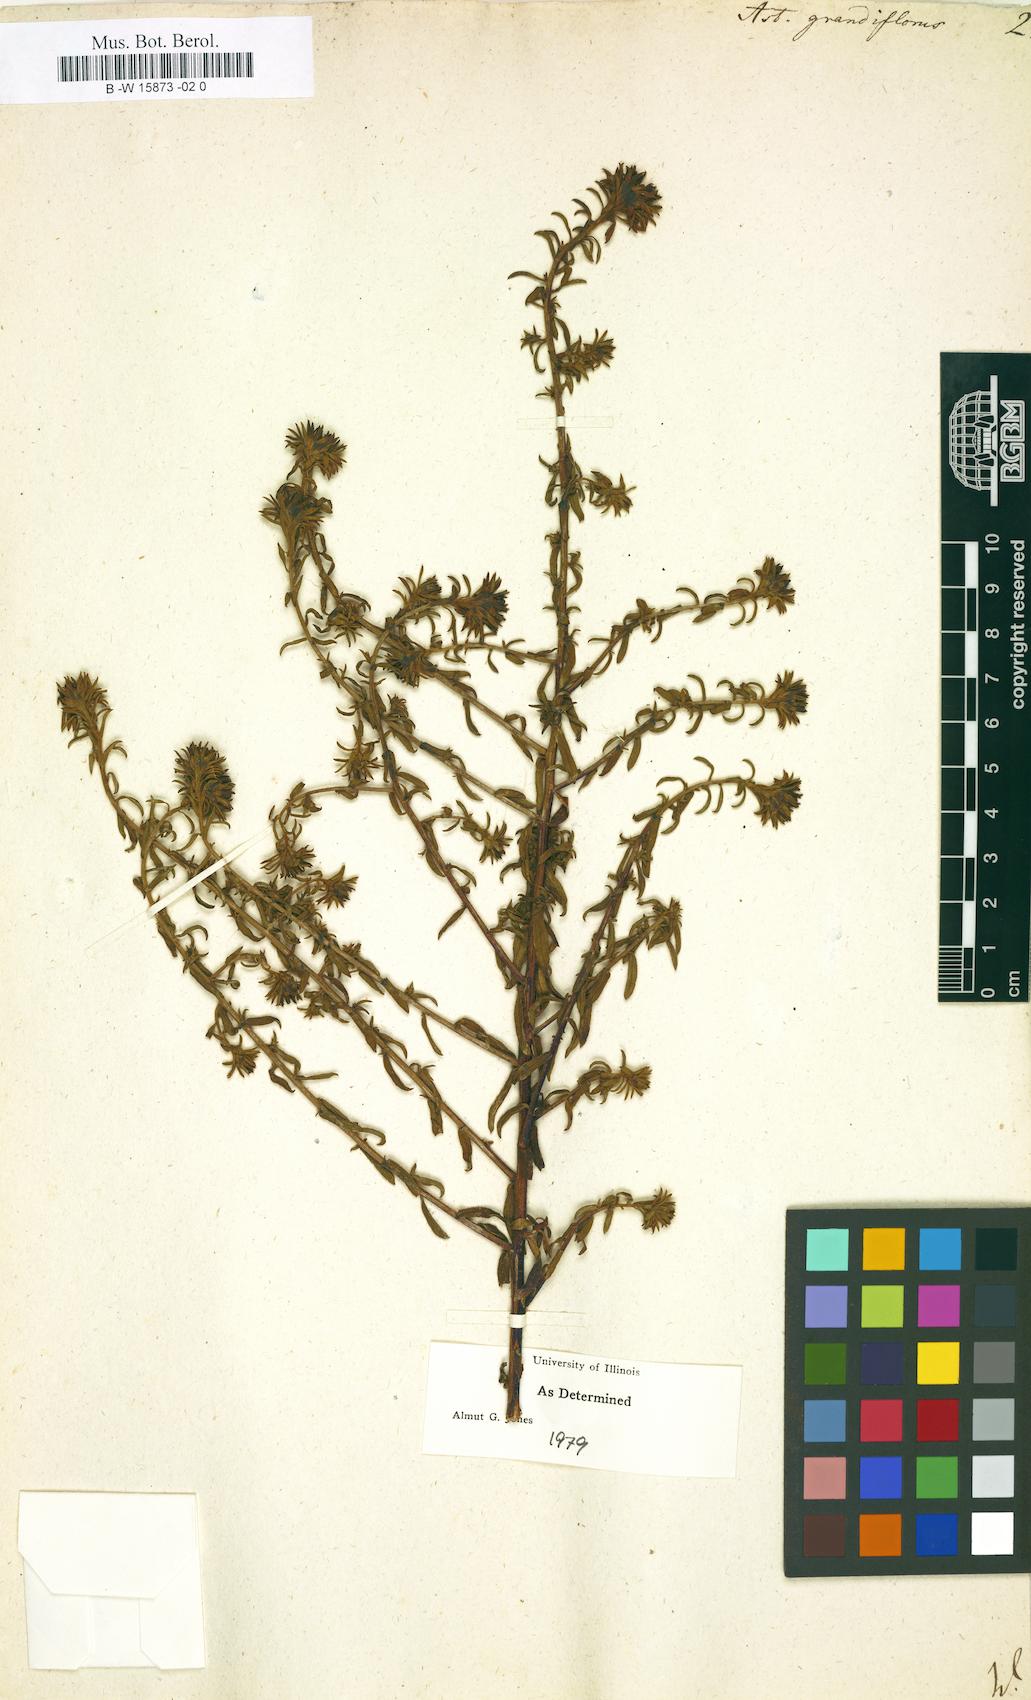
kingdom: Plantae
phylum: Tracheophyta
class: Magnoliopsida
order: Asterales
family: Asteraceae
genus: Aster
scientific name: Aster grandiflorus
